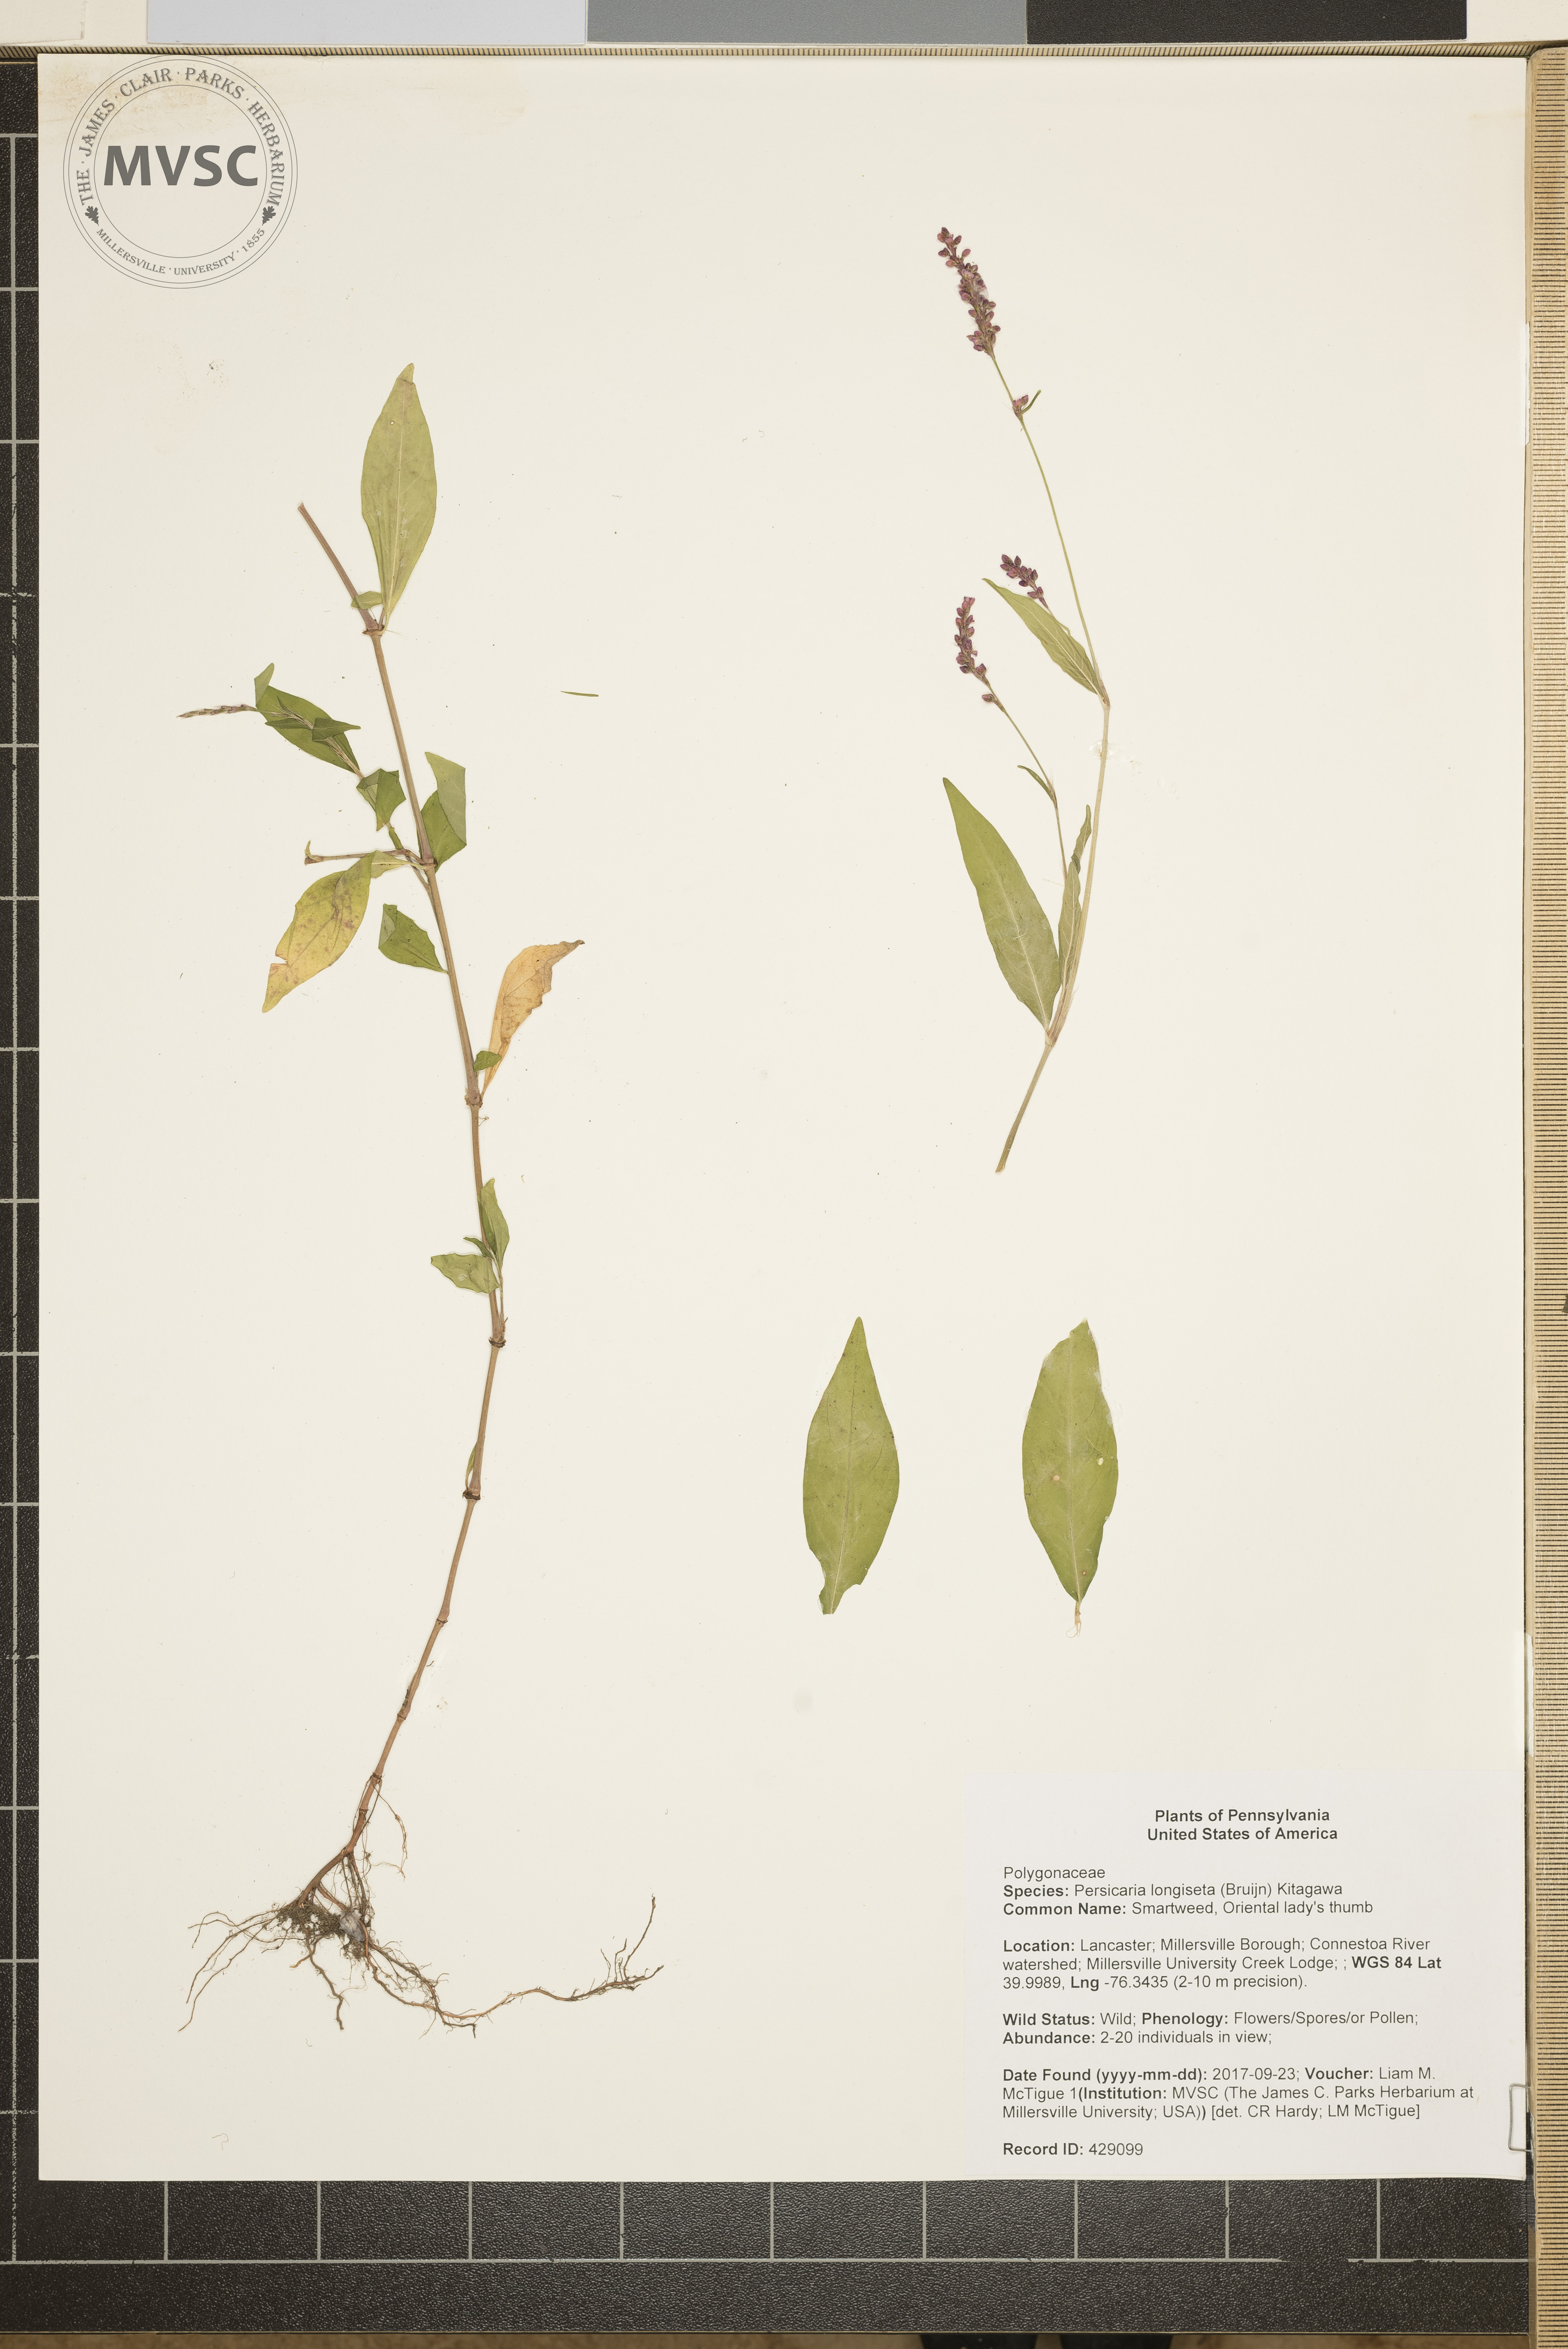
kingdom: Plantae
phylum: Tracheophyta
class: Magnoliopsida
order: Caryophyllales
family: Polygonaceae
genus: Persicaria
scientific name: Persicaria longiseta
